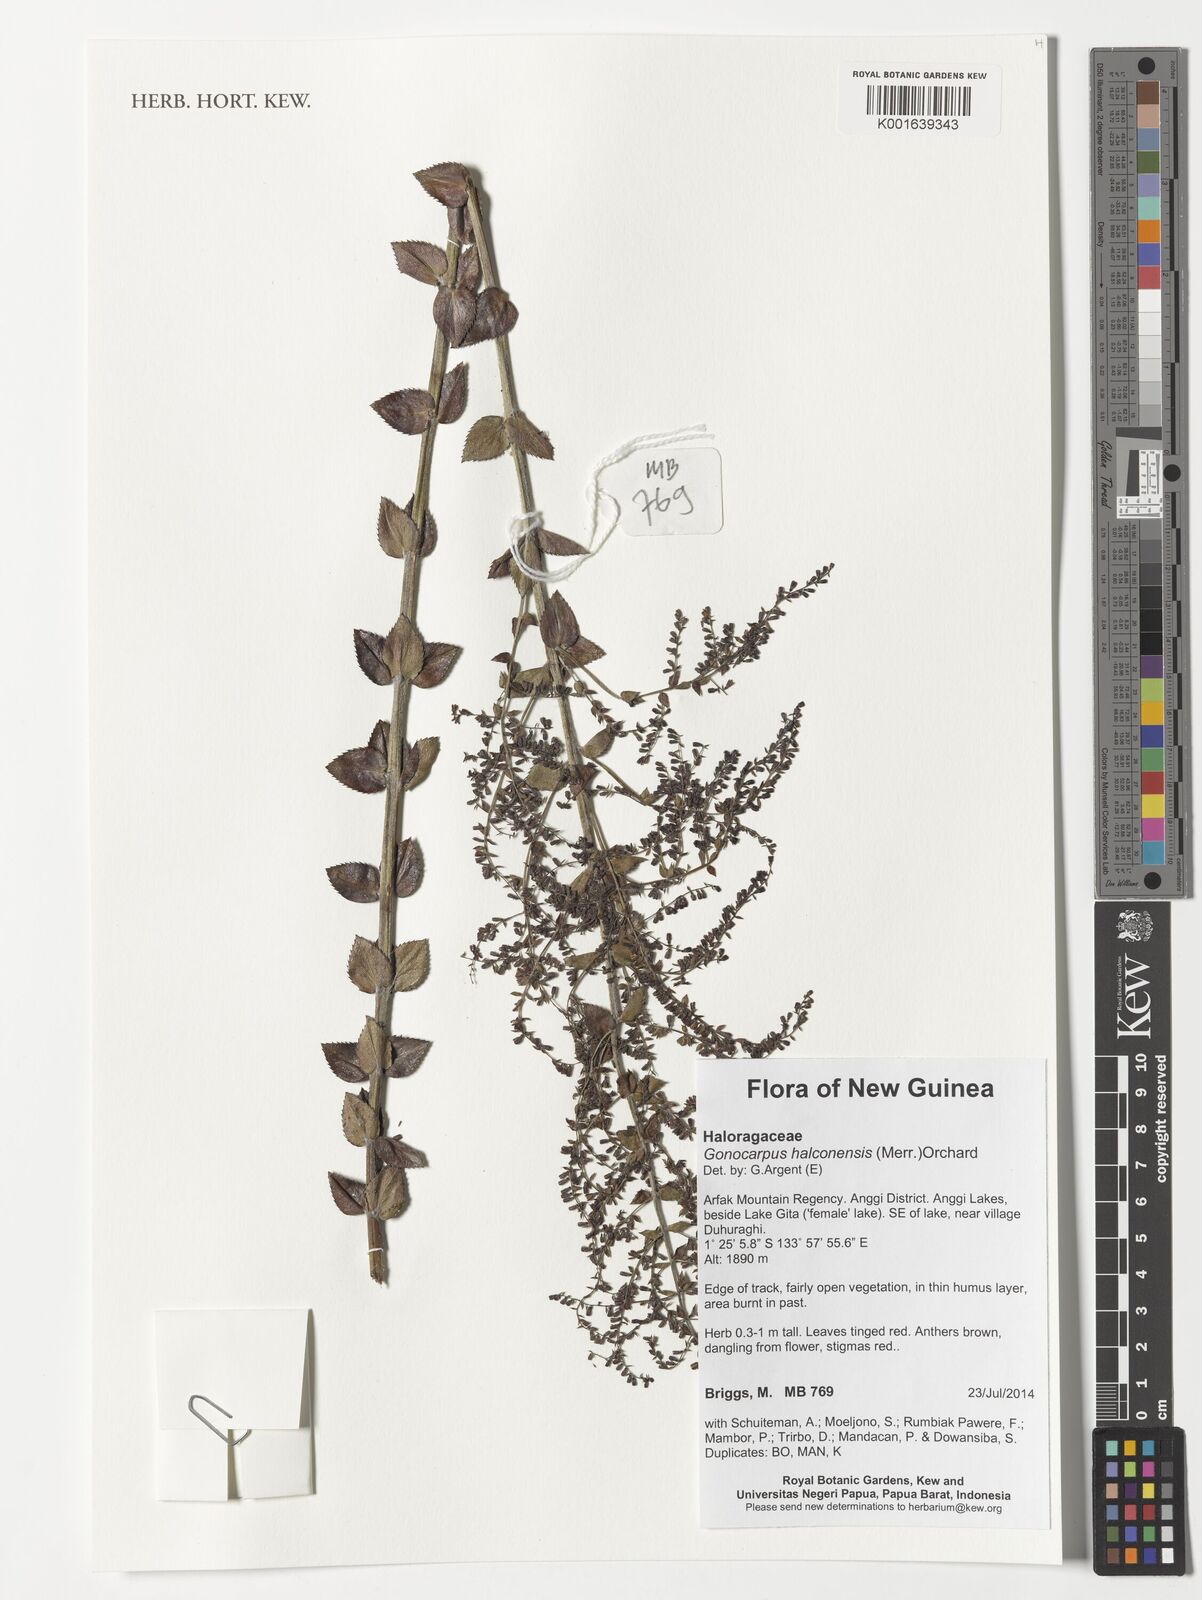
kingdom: Plantae
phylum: Tracheophyta
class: Magnoliopsida
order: Saxifragales
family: Haloragaceae
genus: Gonocarpus
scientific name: Gonocarpus halconensis
